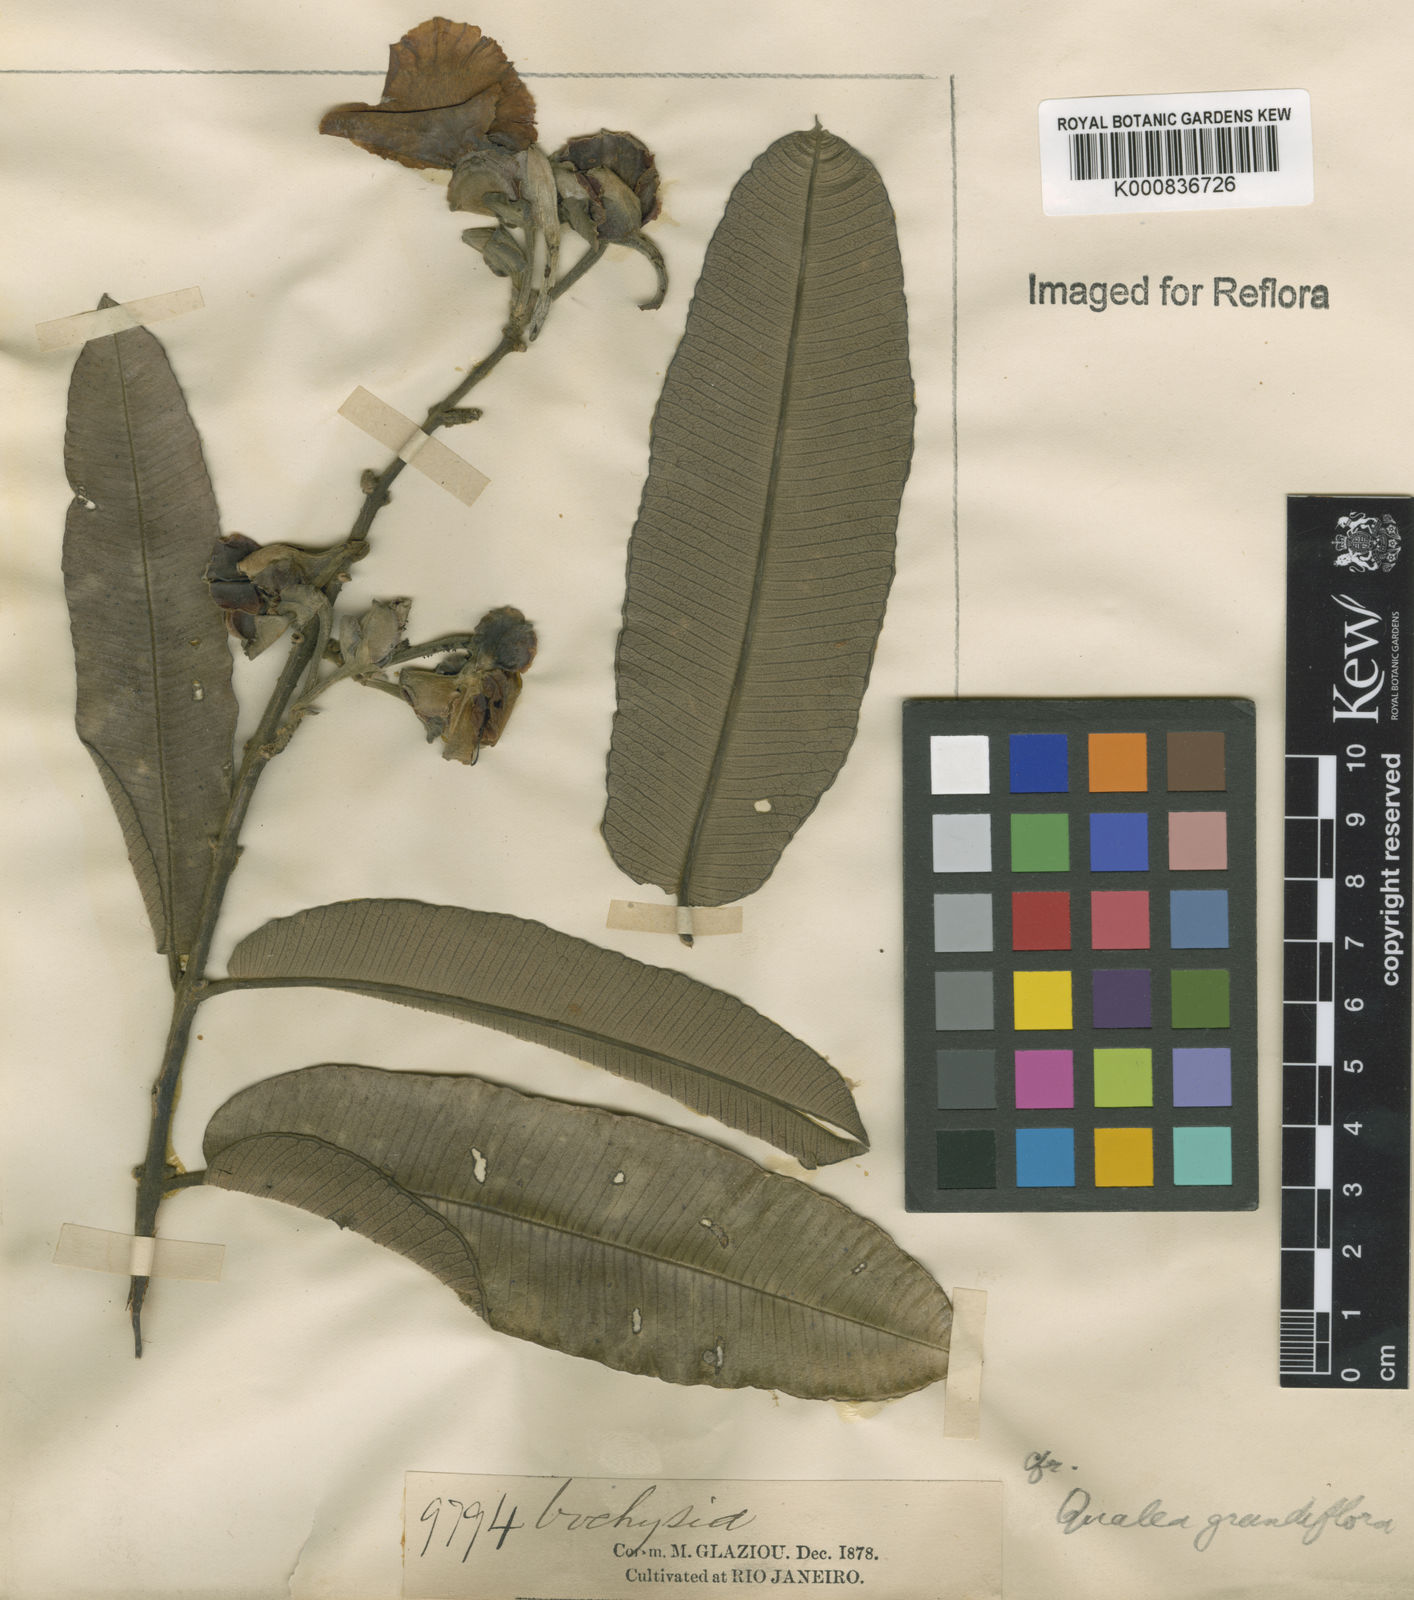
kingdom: Plantae
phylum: Tracheophyta
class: Magnoliopsida
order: Myrtales
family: Vochysiaceae
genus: Qualea
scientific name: Qualea grandiflora
